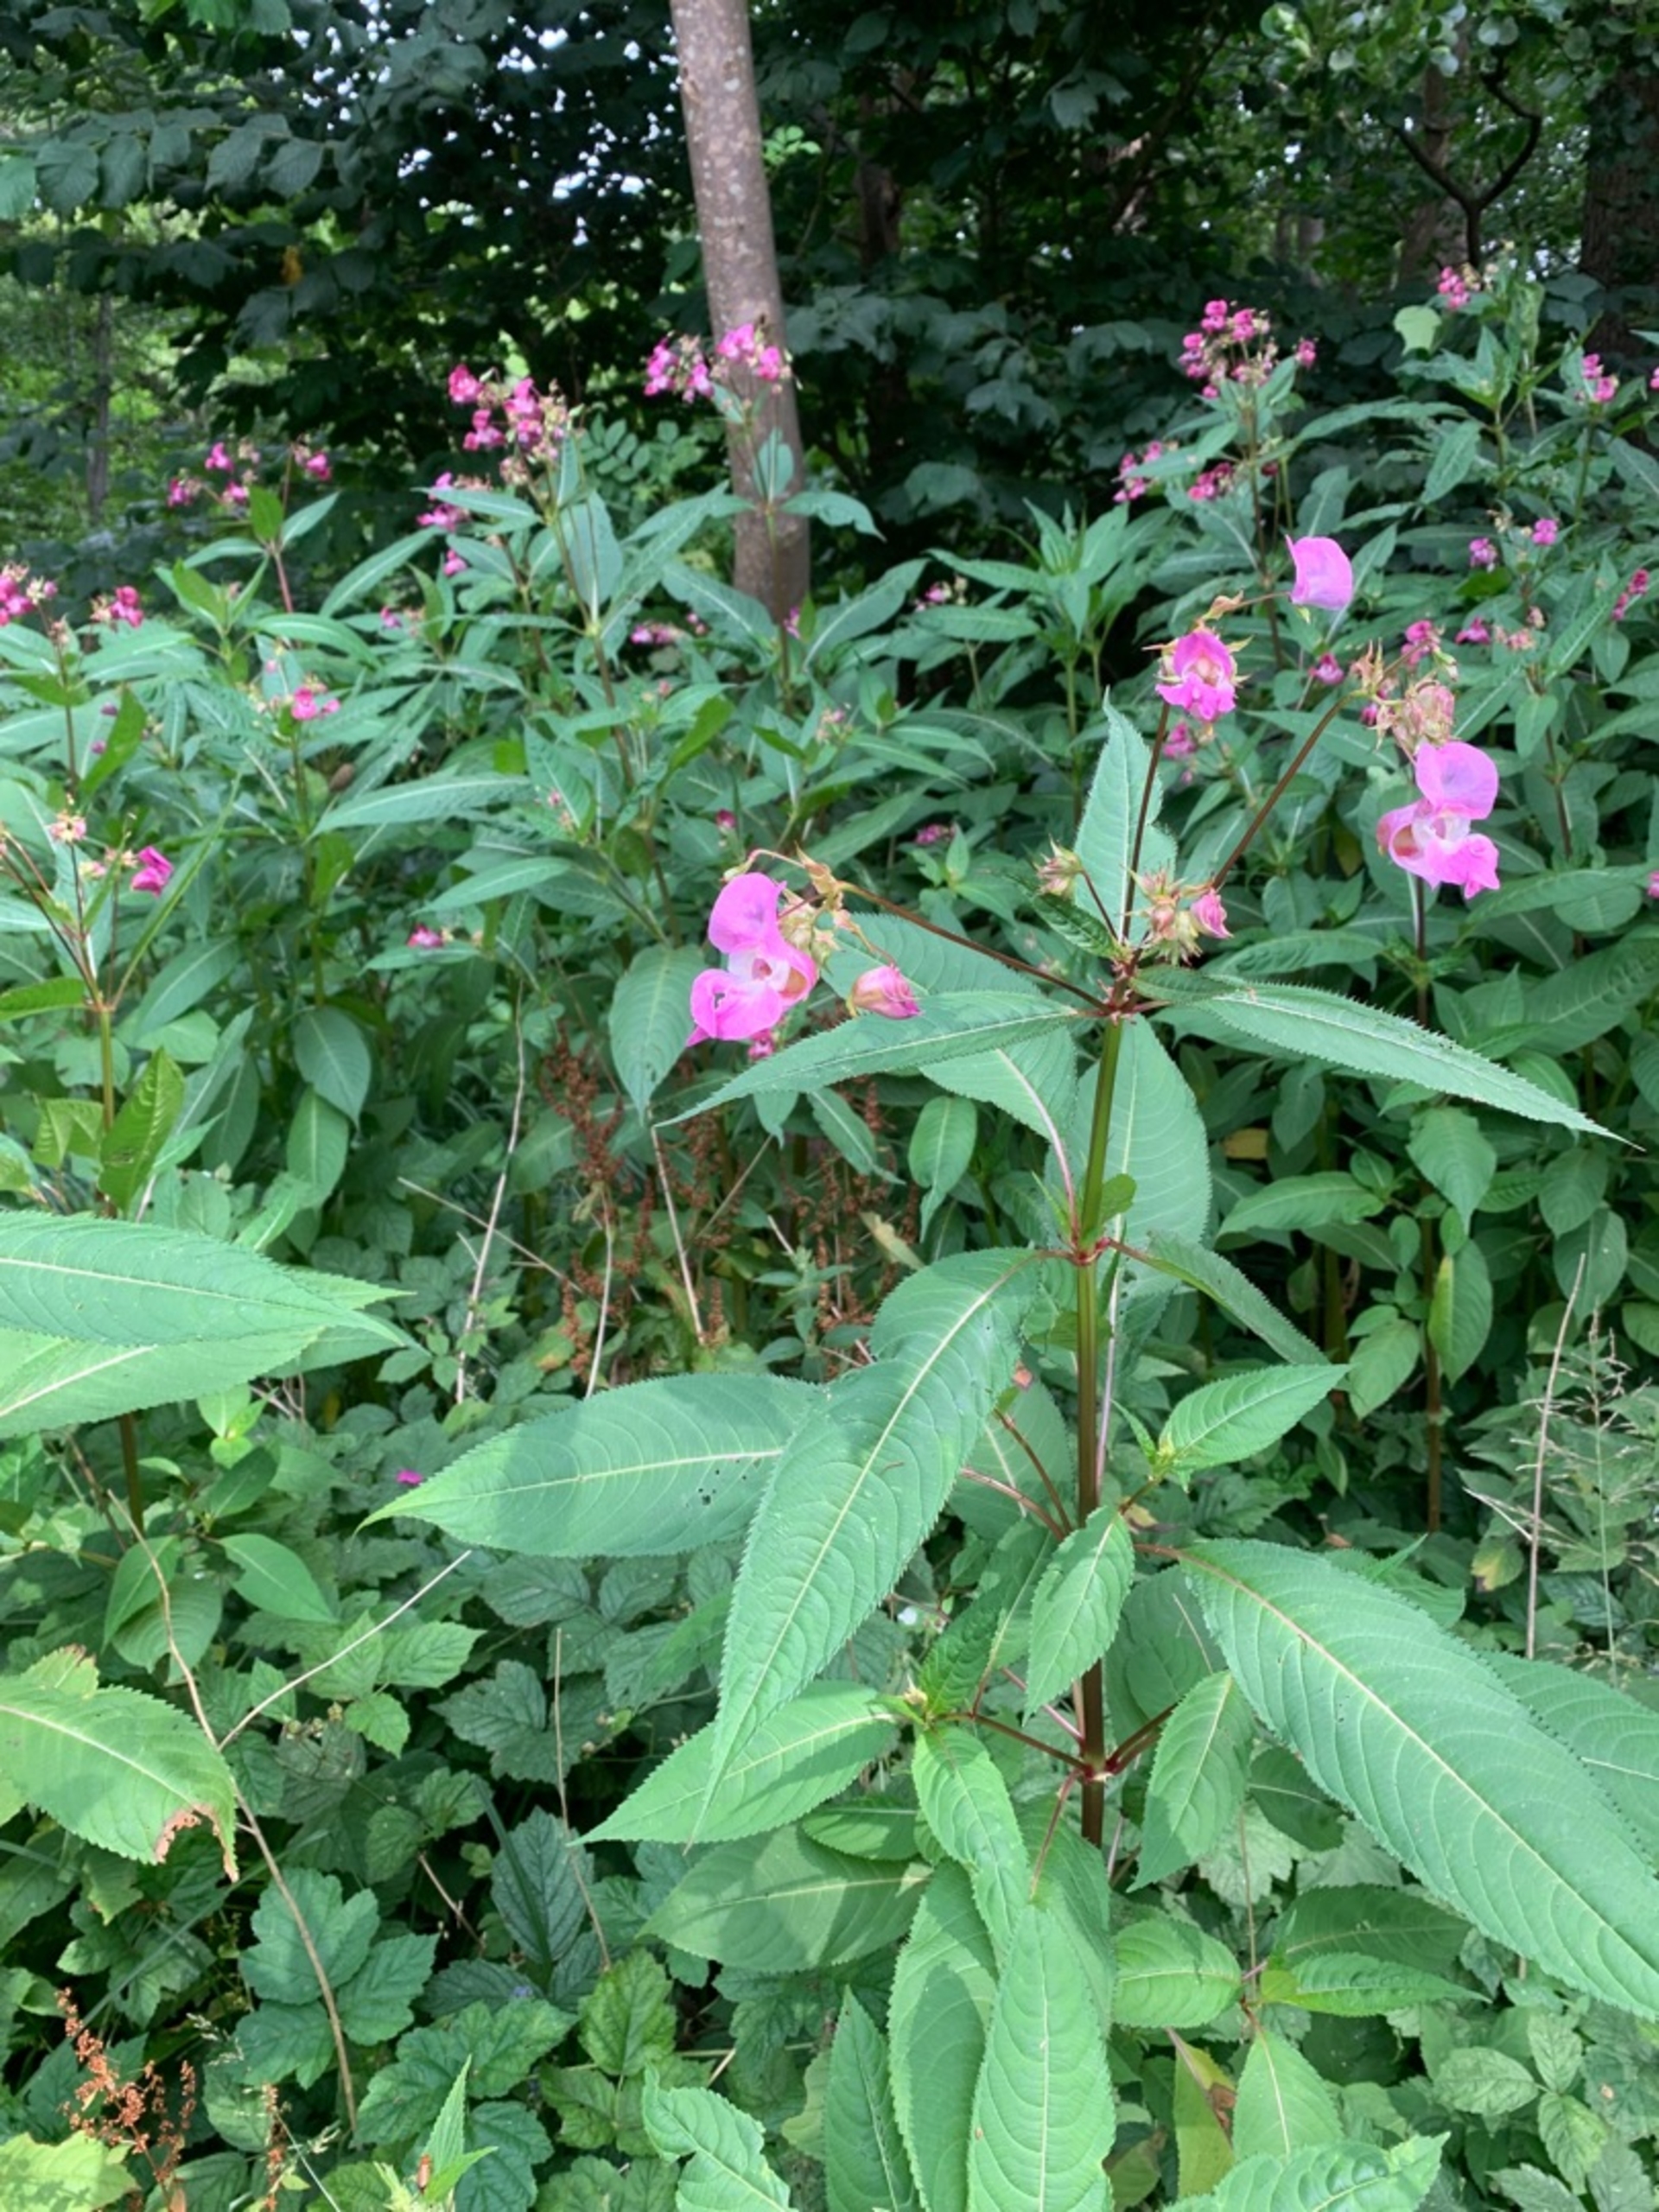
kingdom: Plantae
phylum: Tracheophyta
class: Magnoliopsida
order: Ericales
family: Balsaminaceae
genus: Impatiens
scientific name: Impatiens glandulifera
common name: Kæmpe-balsamin
